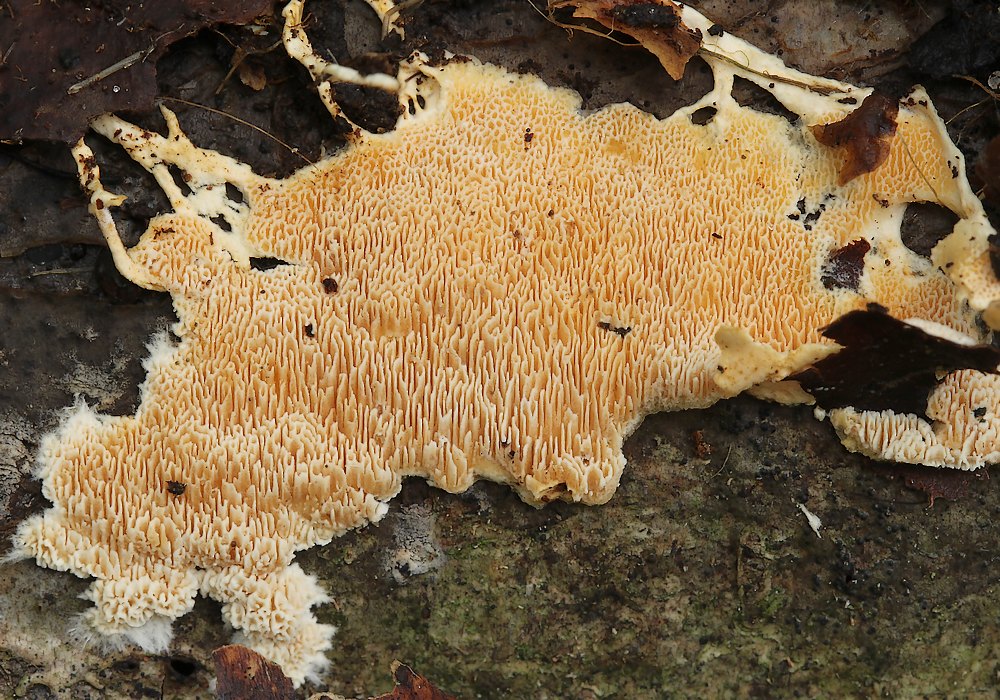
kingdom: Fungi
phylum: Basidiomycota
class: Agaricomycetes
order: Polyporales
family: Steccherinaceae
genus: Steccherinum
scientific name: Steccherinum lacerum
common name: trådet skønporesvamp
